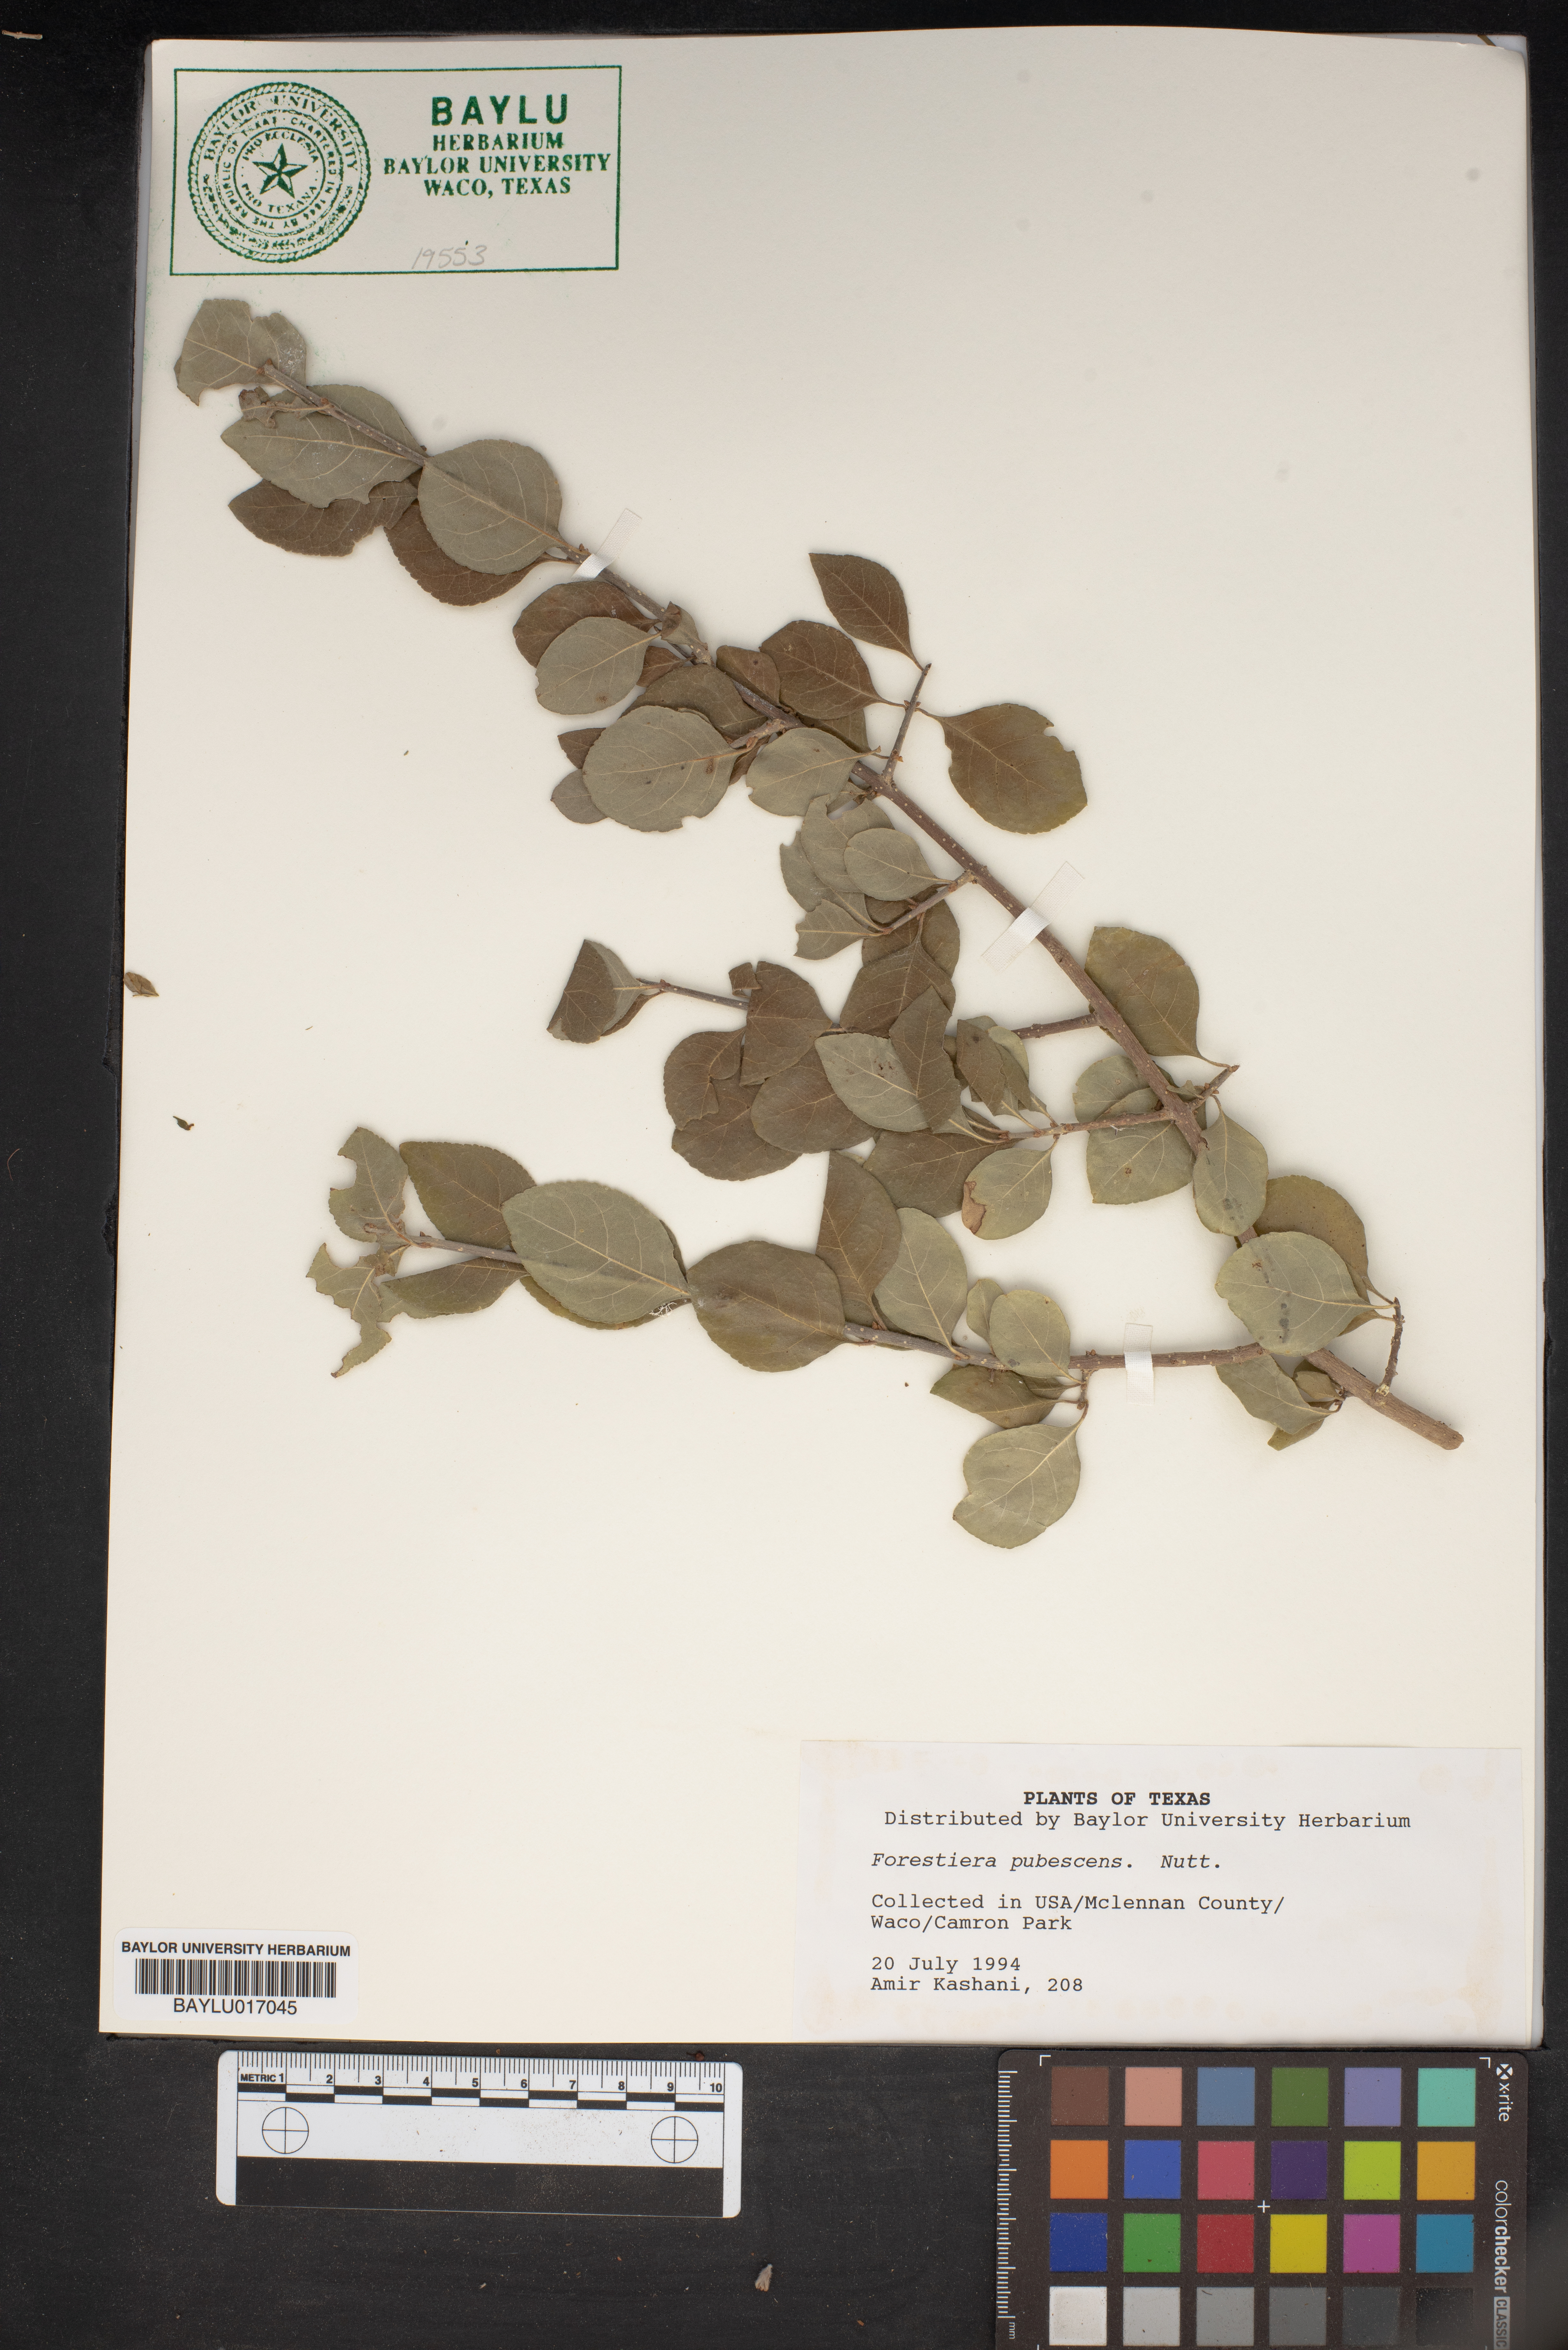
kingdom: Plantae
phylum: Tracheophyta
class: Magnoliopsida
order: Lamiales
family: Oleaceae
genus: Forestiera
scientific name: Forestiera pubescens
